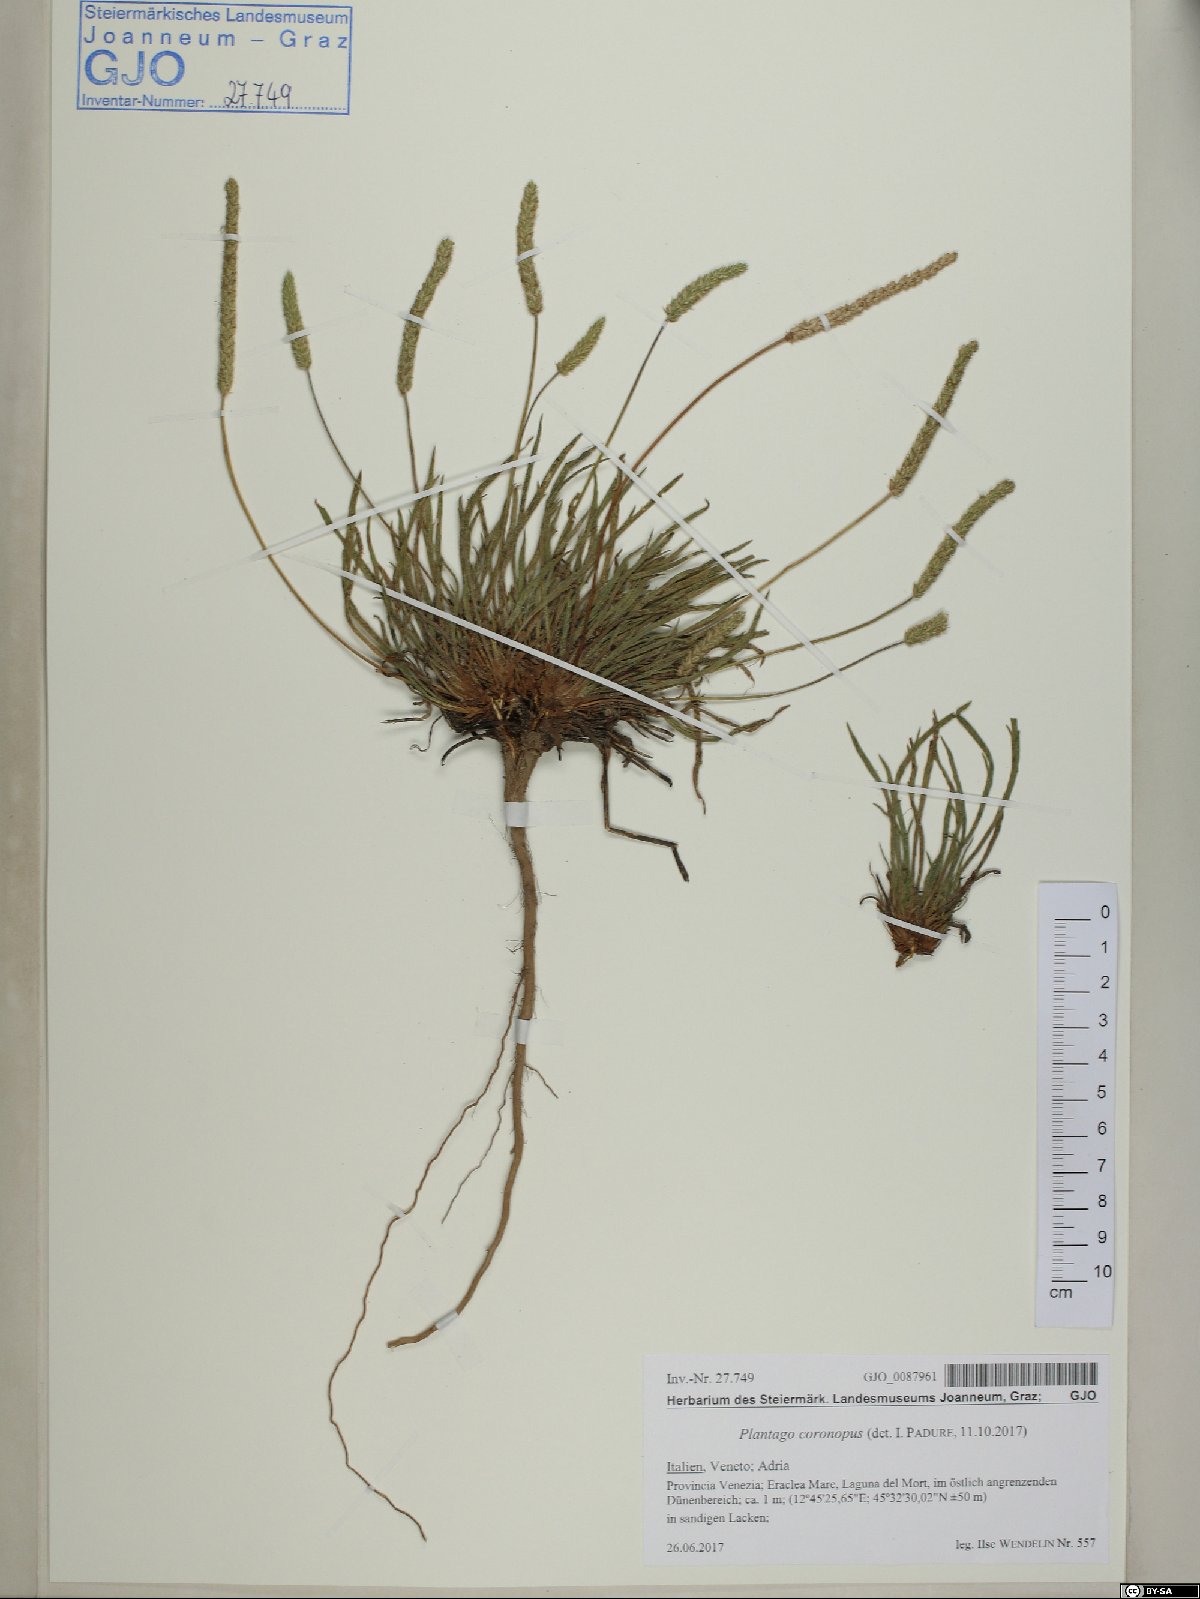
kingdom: Plantae
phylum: Tracheophyta
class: Magnoliopsida
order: Lamiales
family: Plantaginaceae
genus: Plantago
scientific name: Plantago coronopus
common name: Buck's-horn plantain
